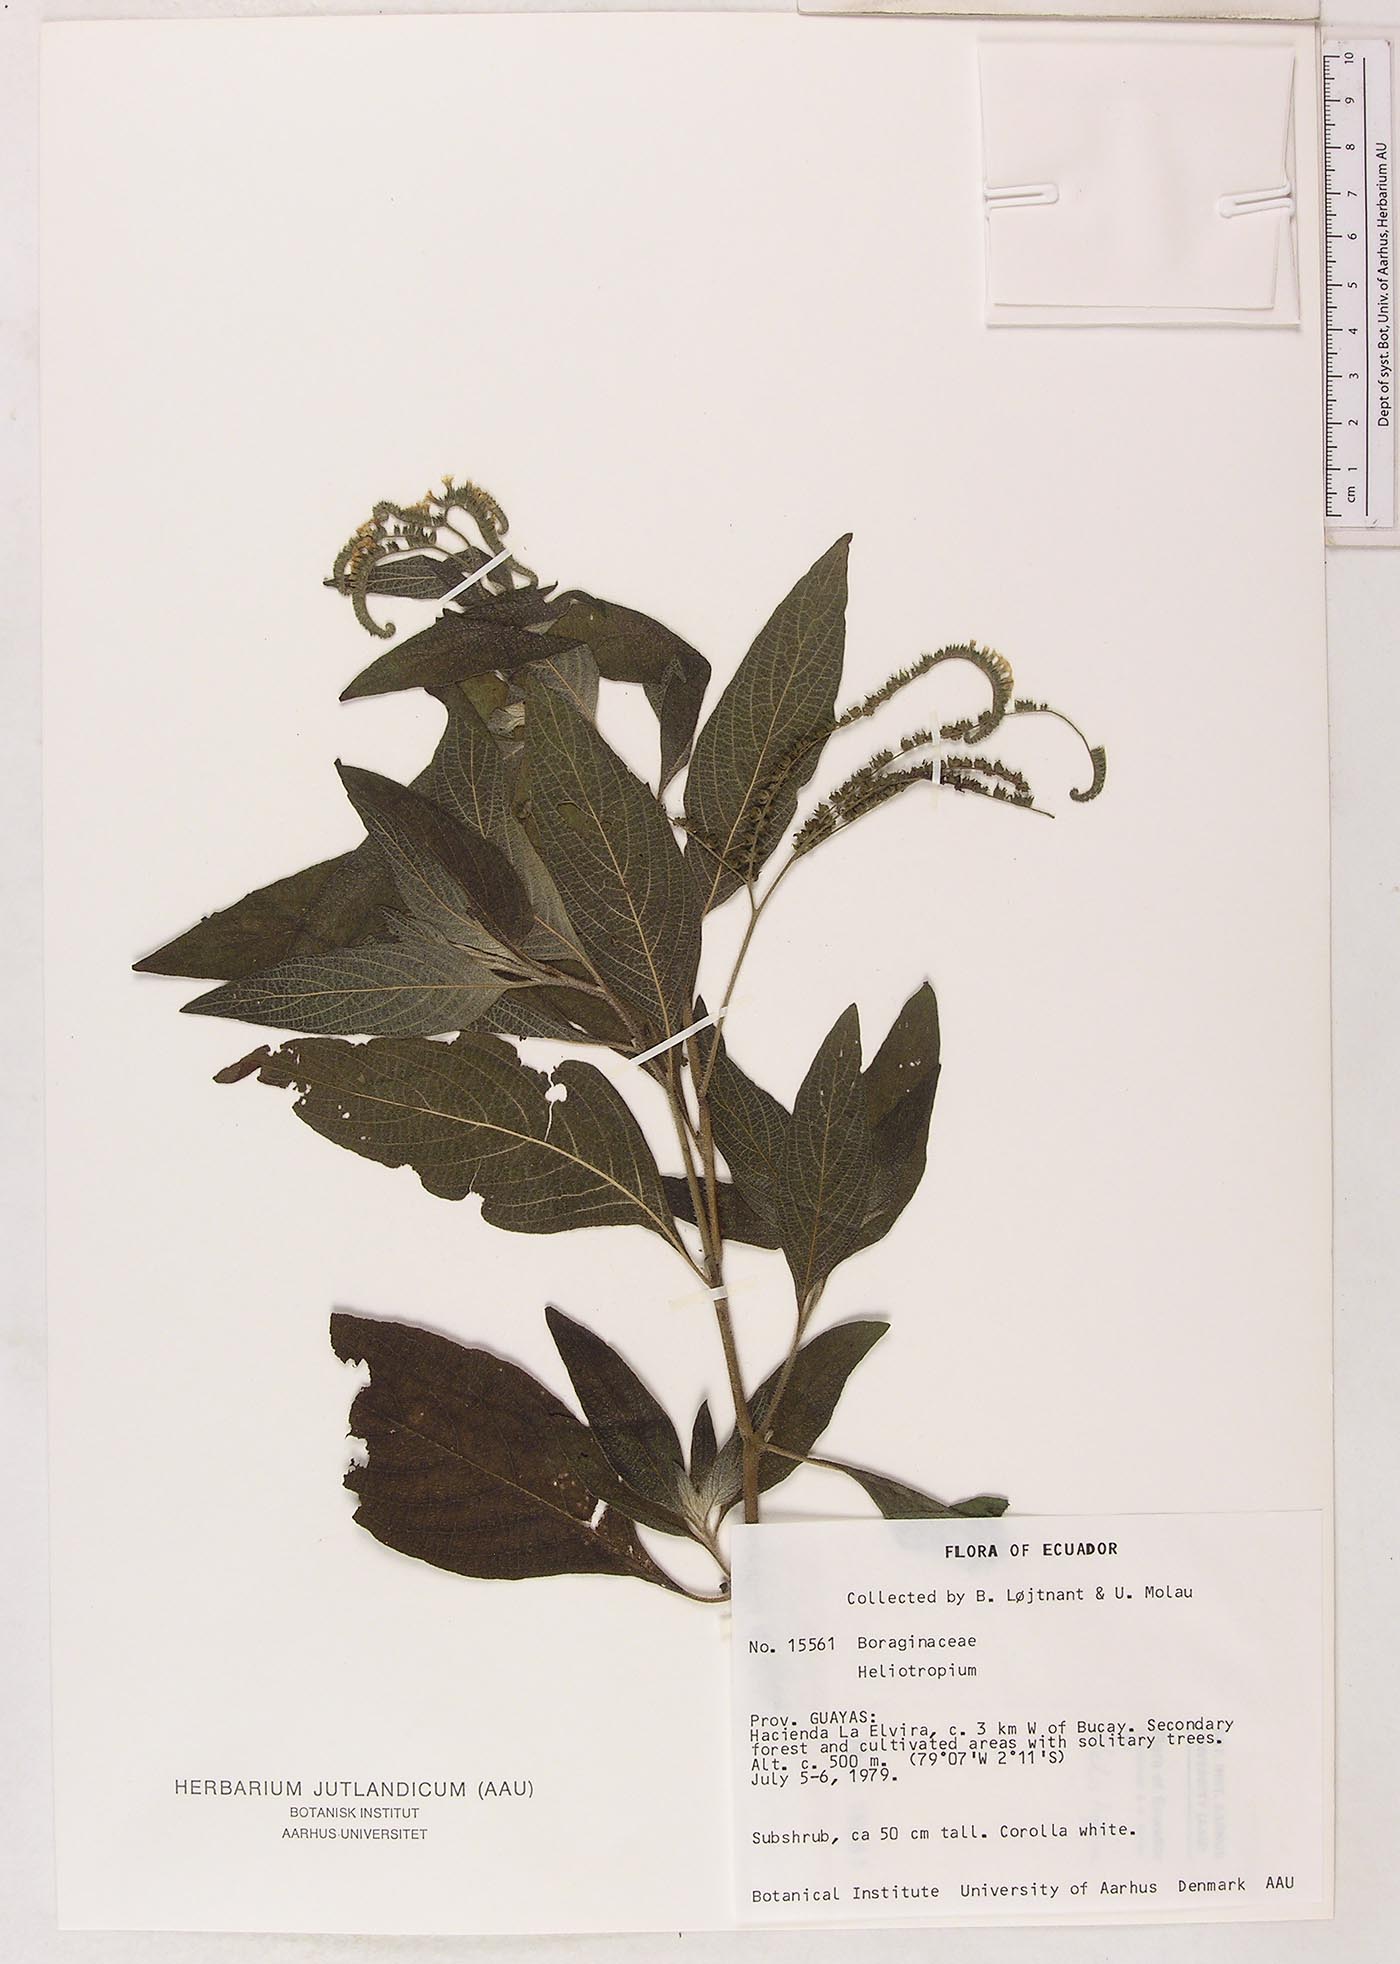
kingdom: Plantae
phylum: Tracheophyta
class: Magnoliopsida
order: Boraginales
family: Heliotropiaceae
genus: Heliotropium
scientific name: Heliotropium rufipilum
